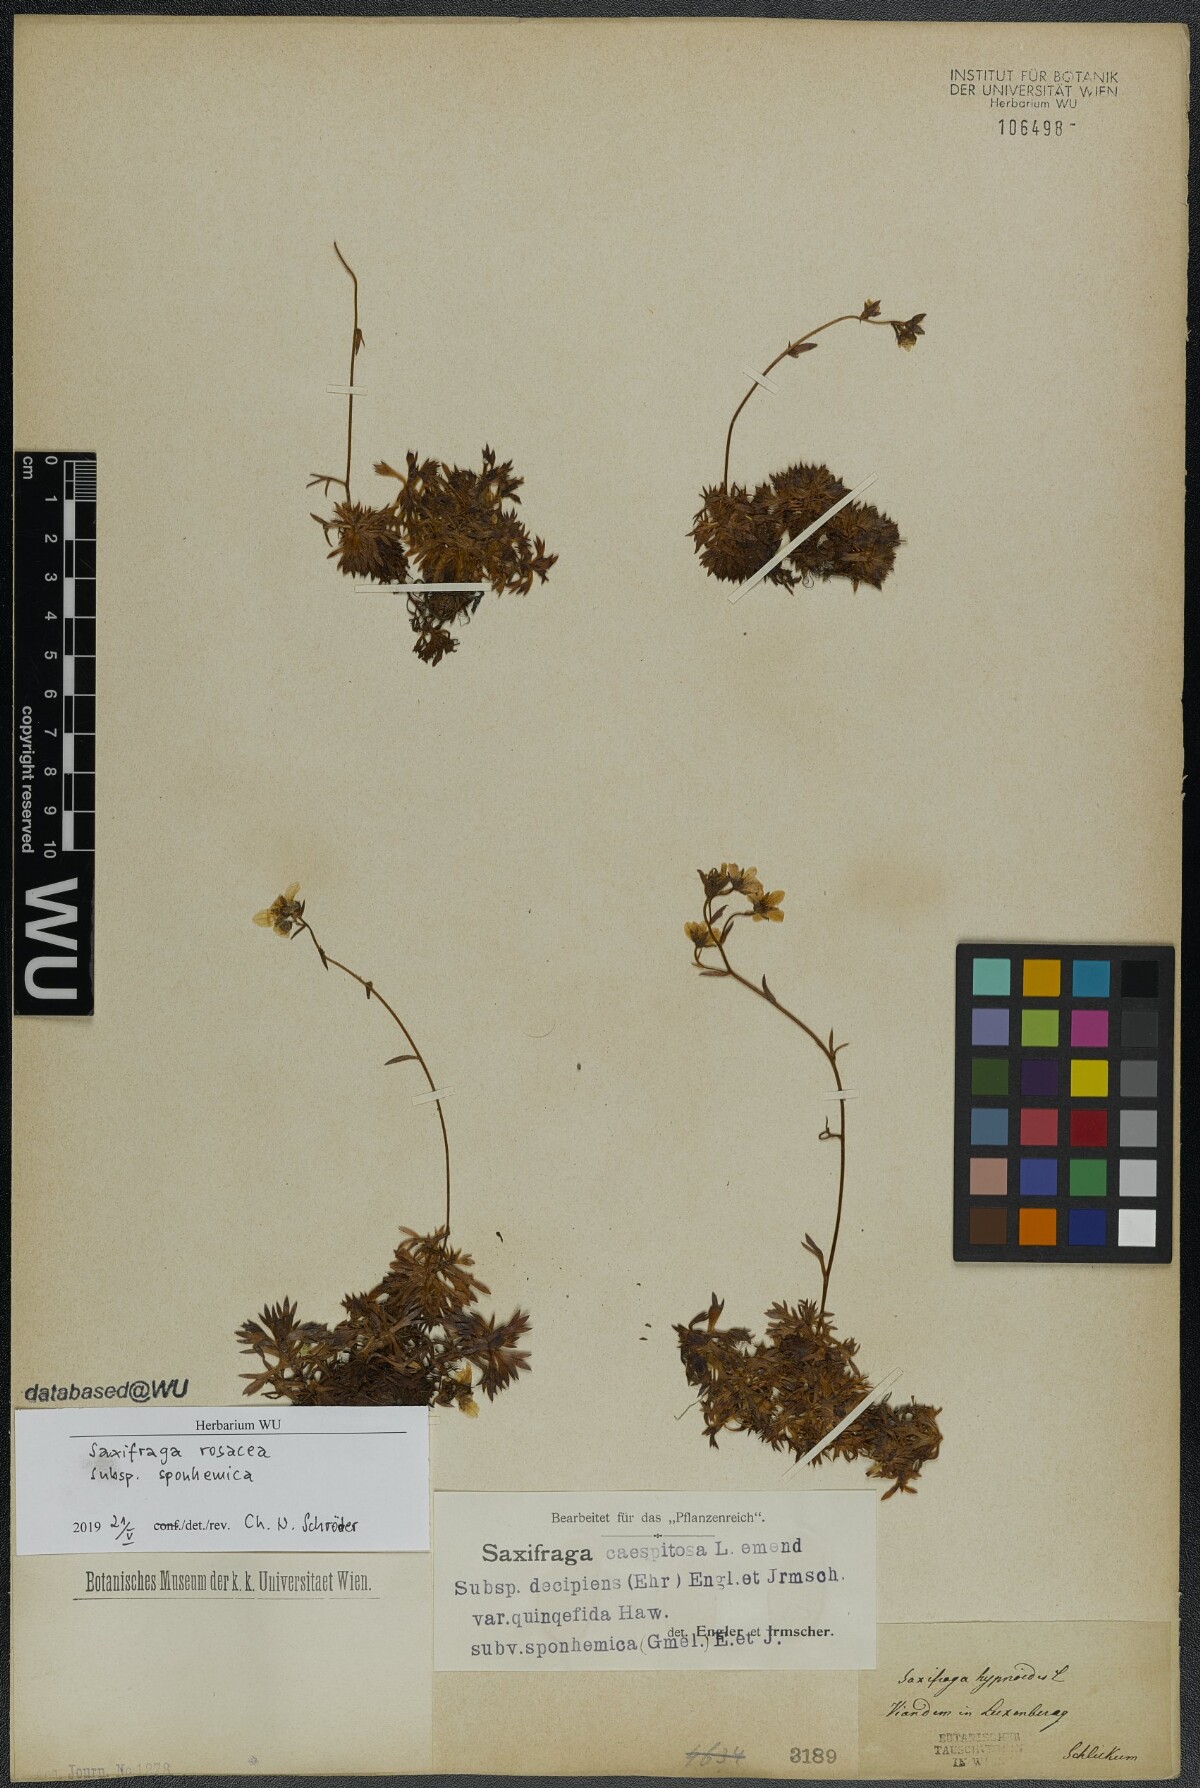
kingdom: Plantae
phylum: Tracheophyta
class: Magnoliopsida
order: Saxifragales
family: Saxifragaceae
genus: Saxifraga
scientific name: Saxifraga rosacea
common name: Irish saxifrage
